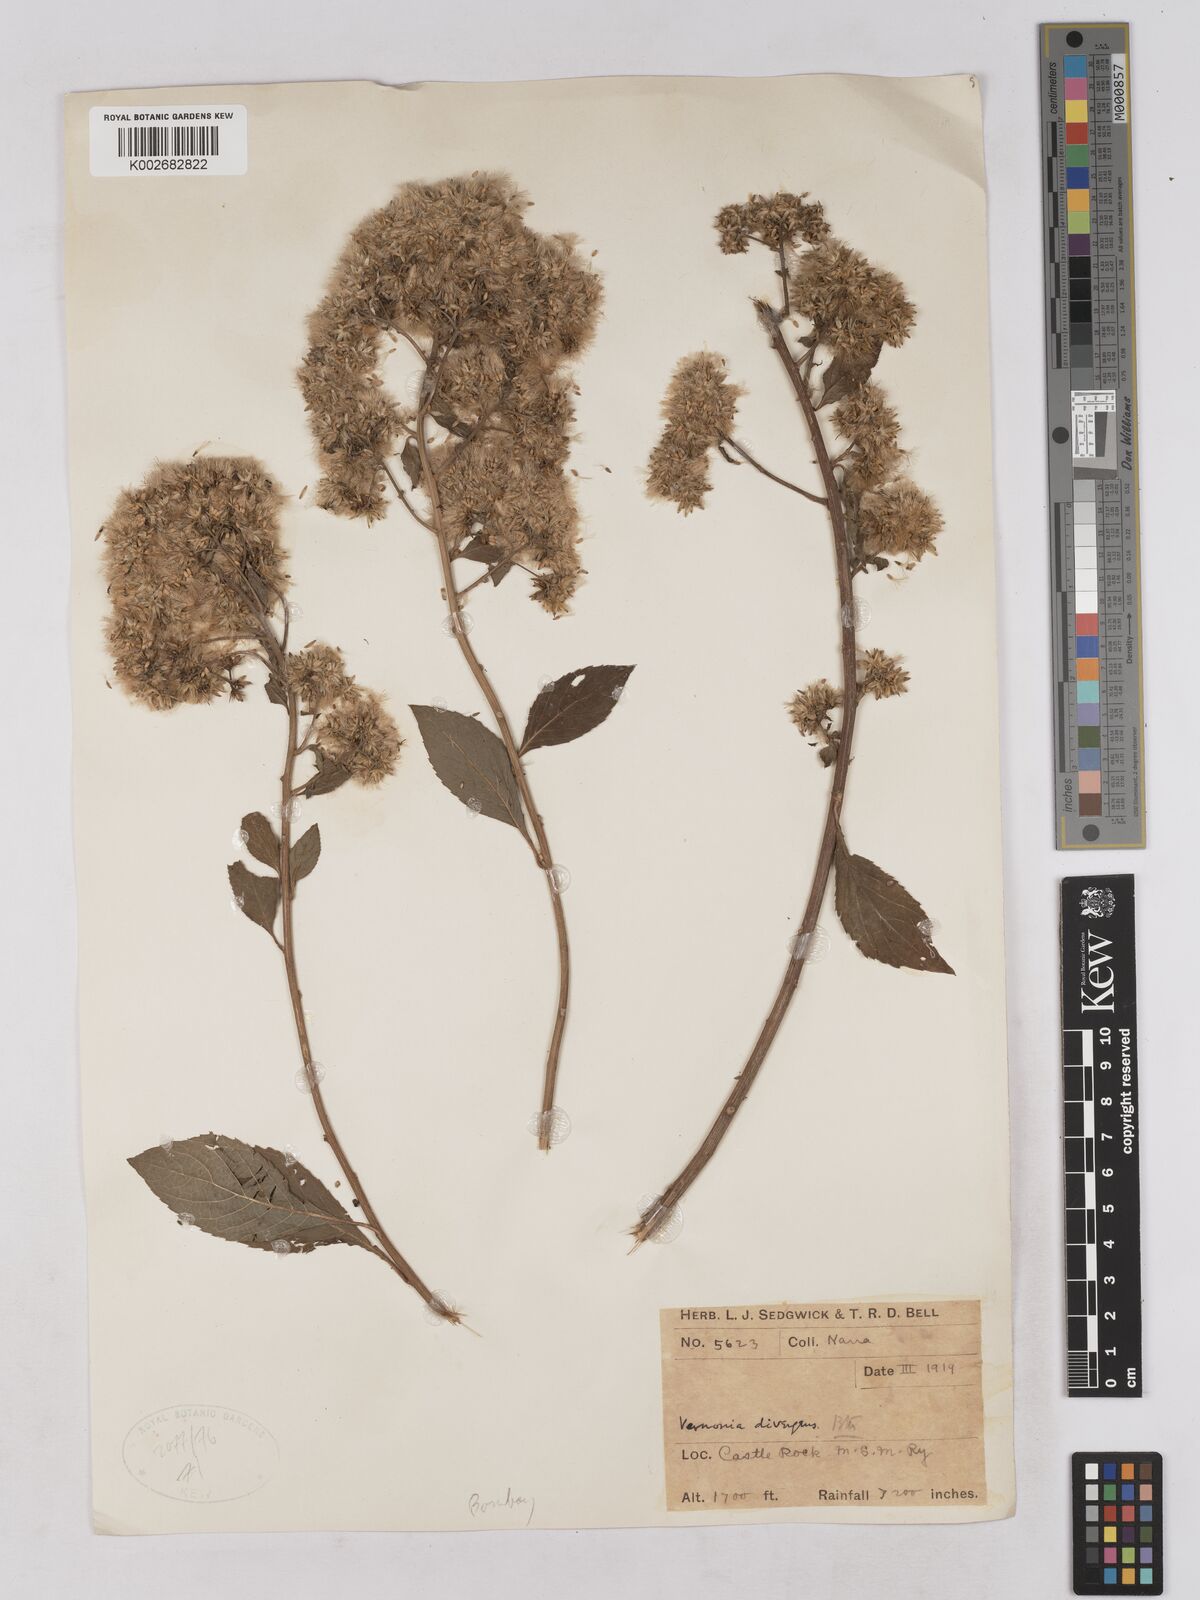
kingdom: Plantae
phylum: Tracheophyta
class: Magnoliopsida
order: Asterales
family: Asteraceae
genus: Acilepis
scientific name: Acilepis divergens
